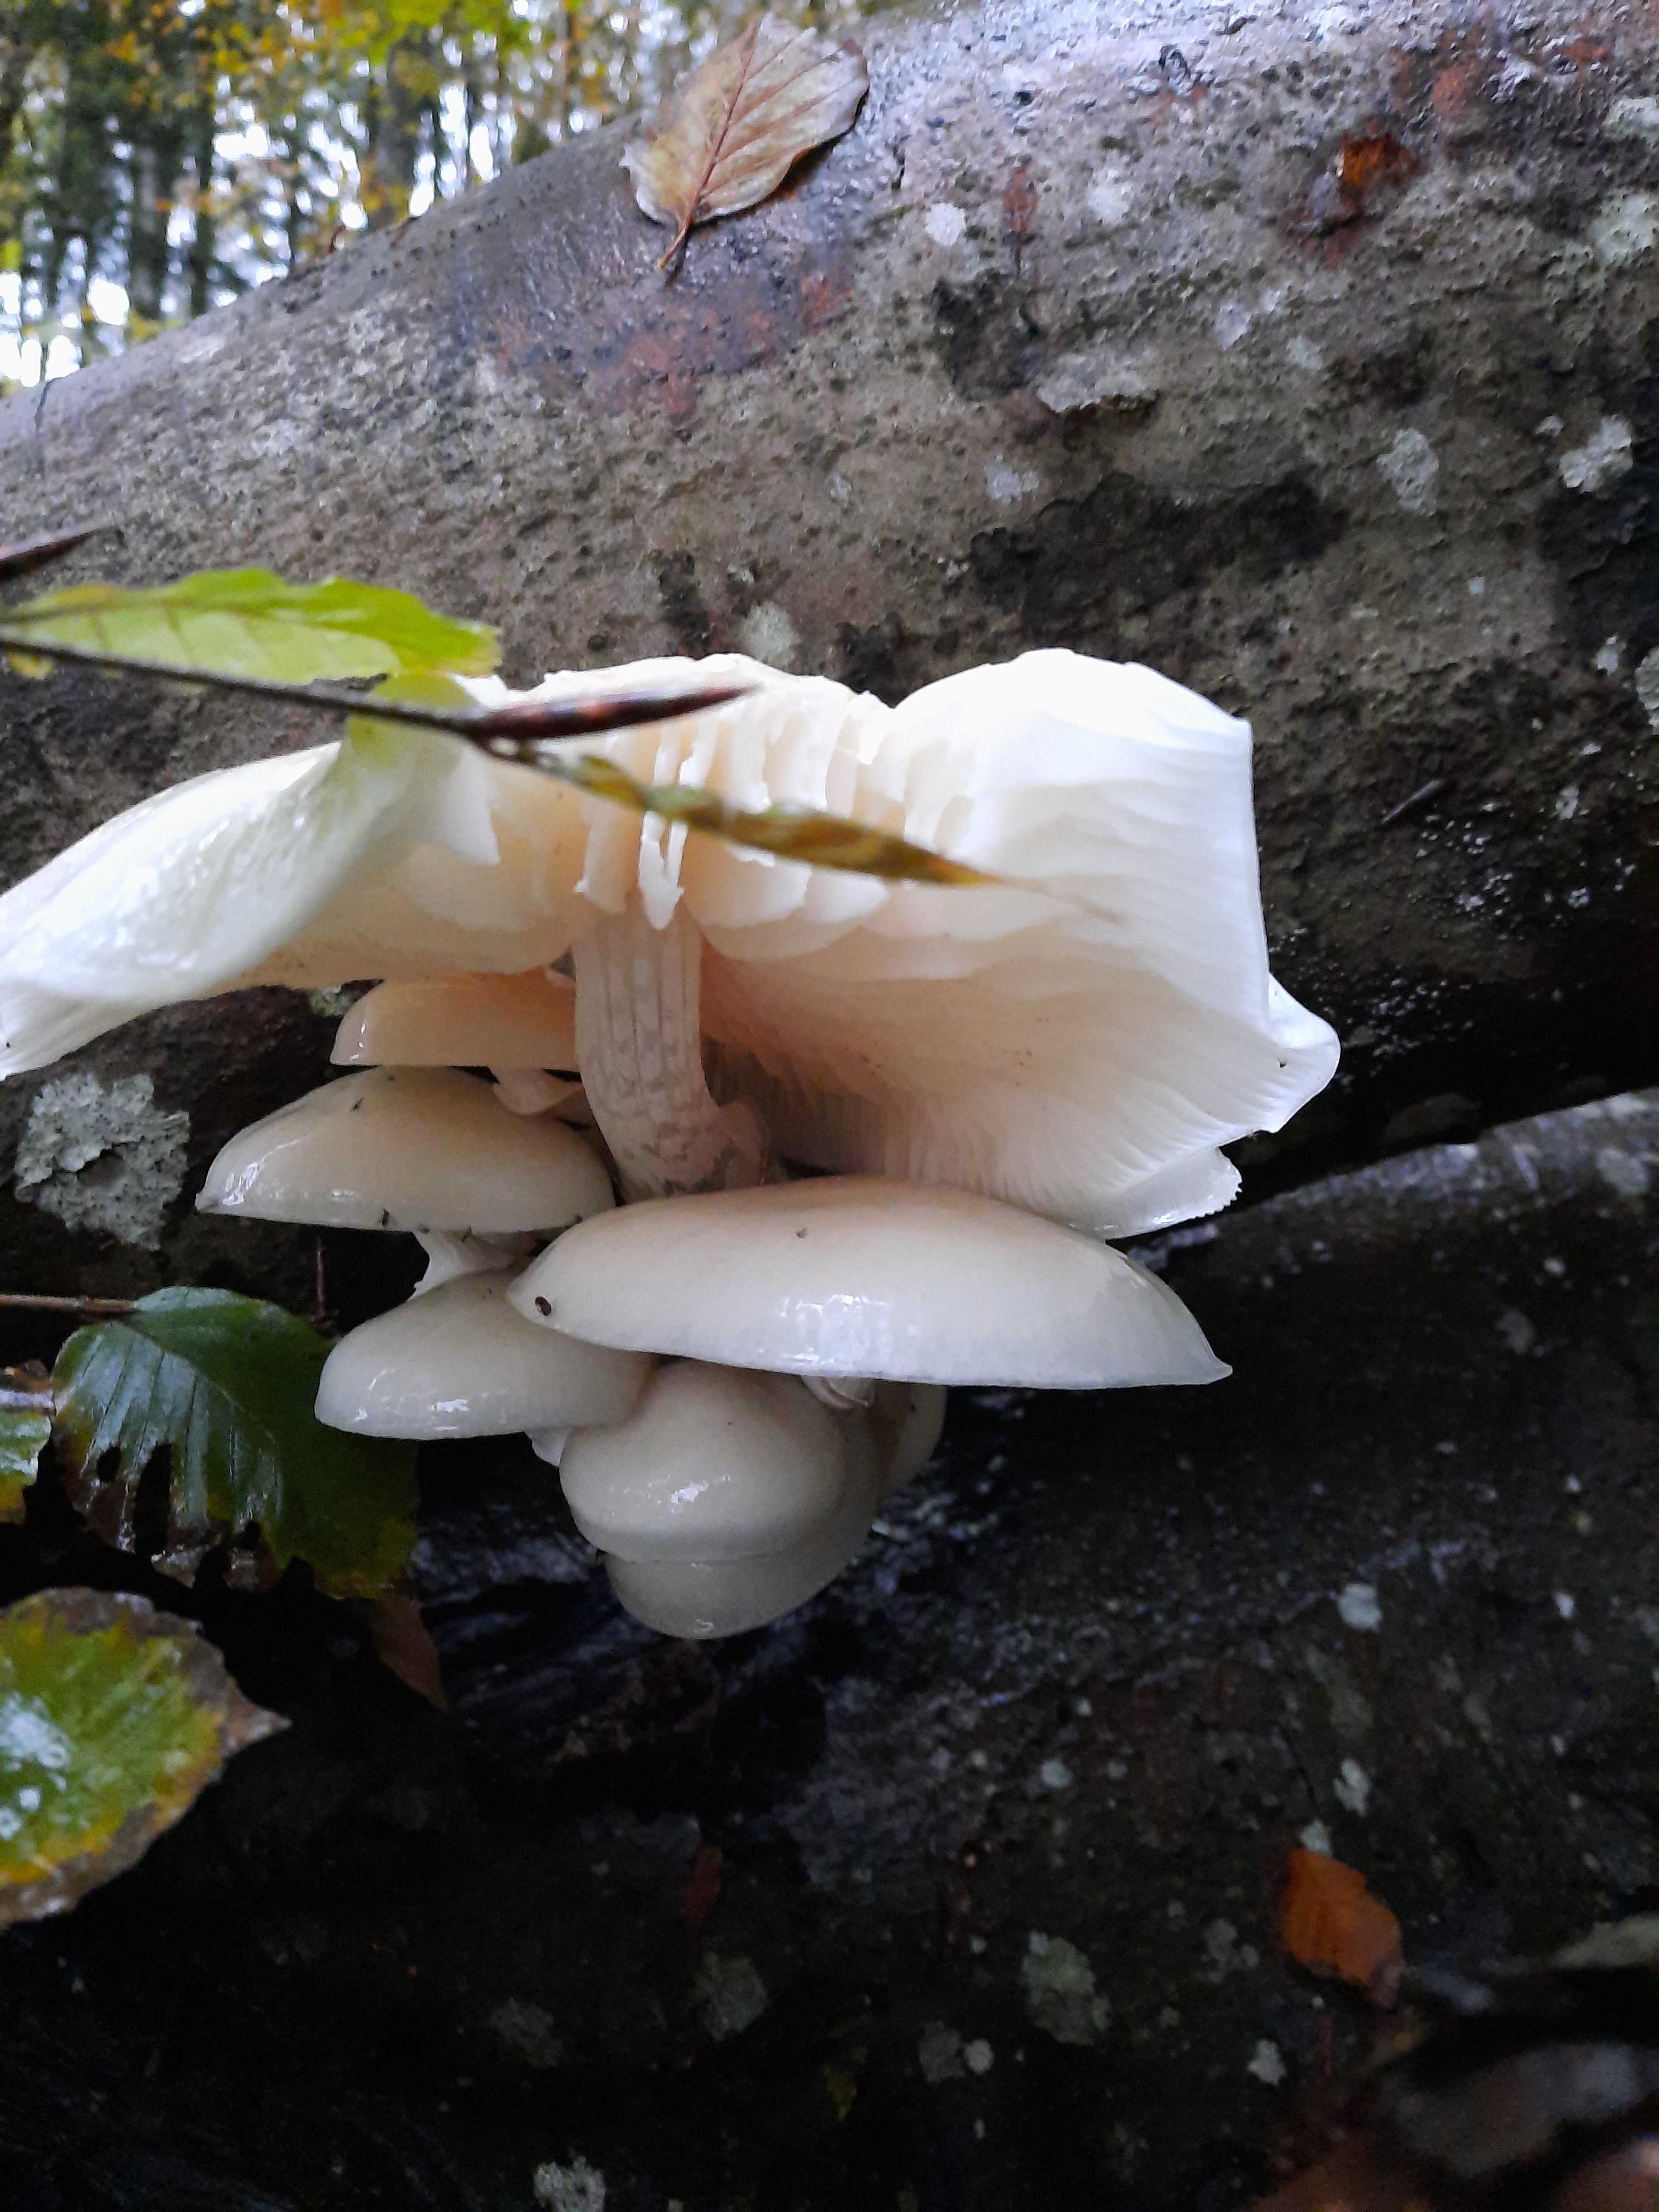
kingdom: Fungi
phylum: Basidiomycota
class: Agaricomycetes
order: Agaricales
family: Physalacriaceae
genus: Mucidula
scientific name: Mucidula mucida
